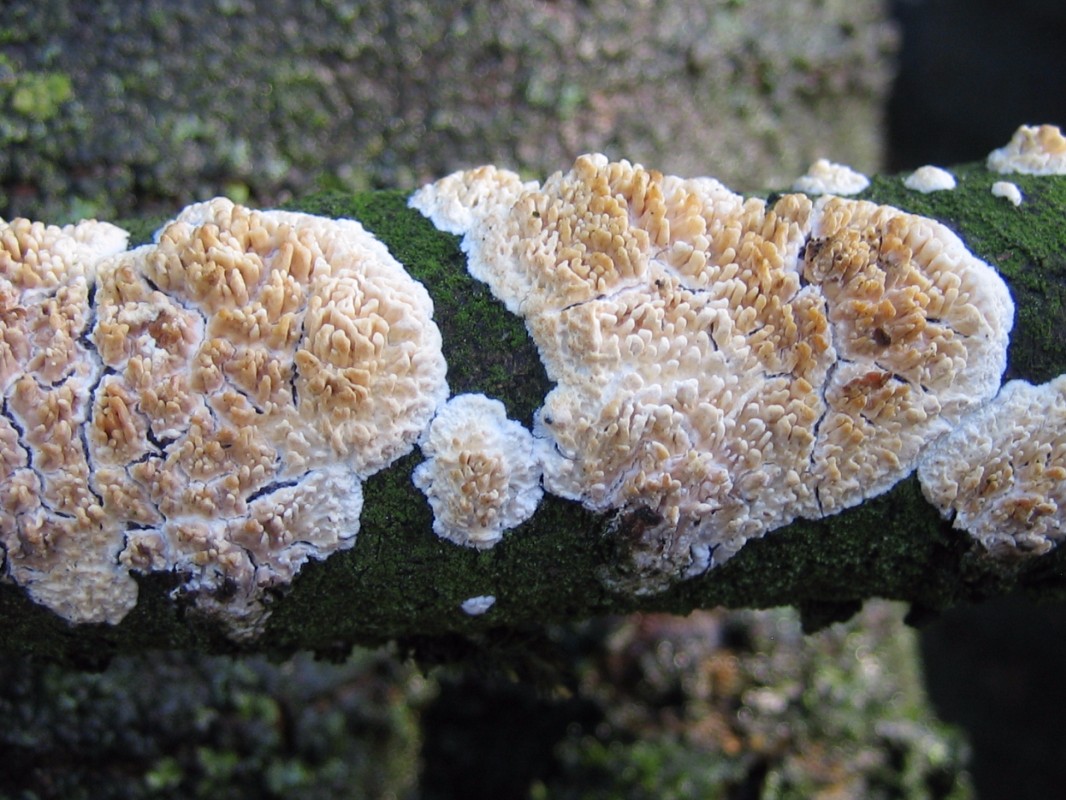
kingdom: Fungi
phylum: Basidiomycota
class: Agaricomycetes
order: Hymenochaetales
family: Schizoporaceae
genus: Xylodon
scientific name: Xylodon radula
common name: grovtandet kalkskind
